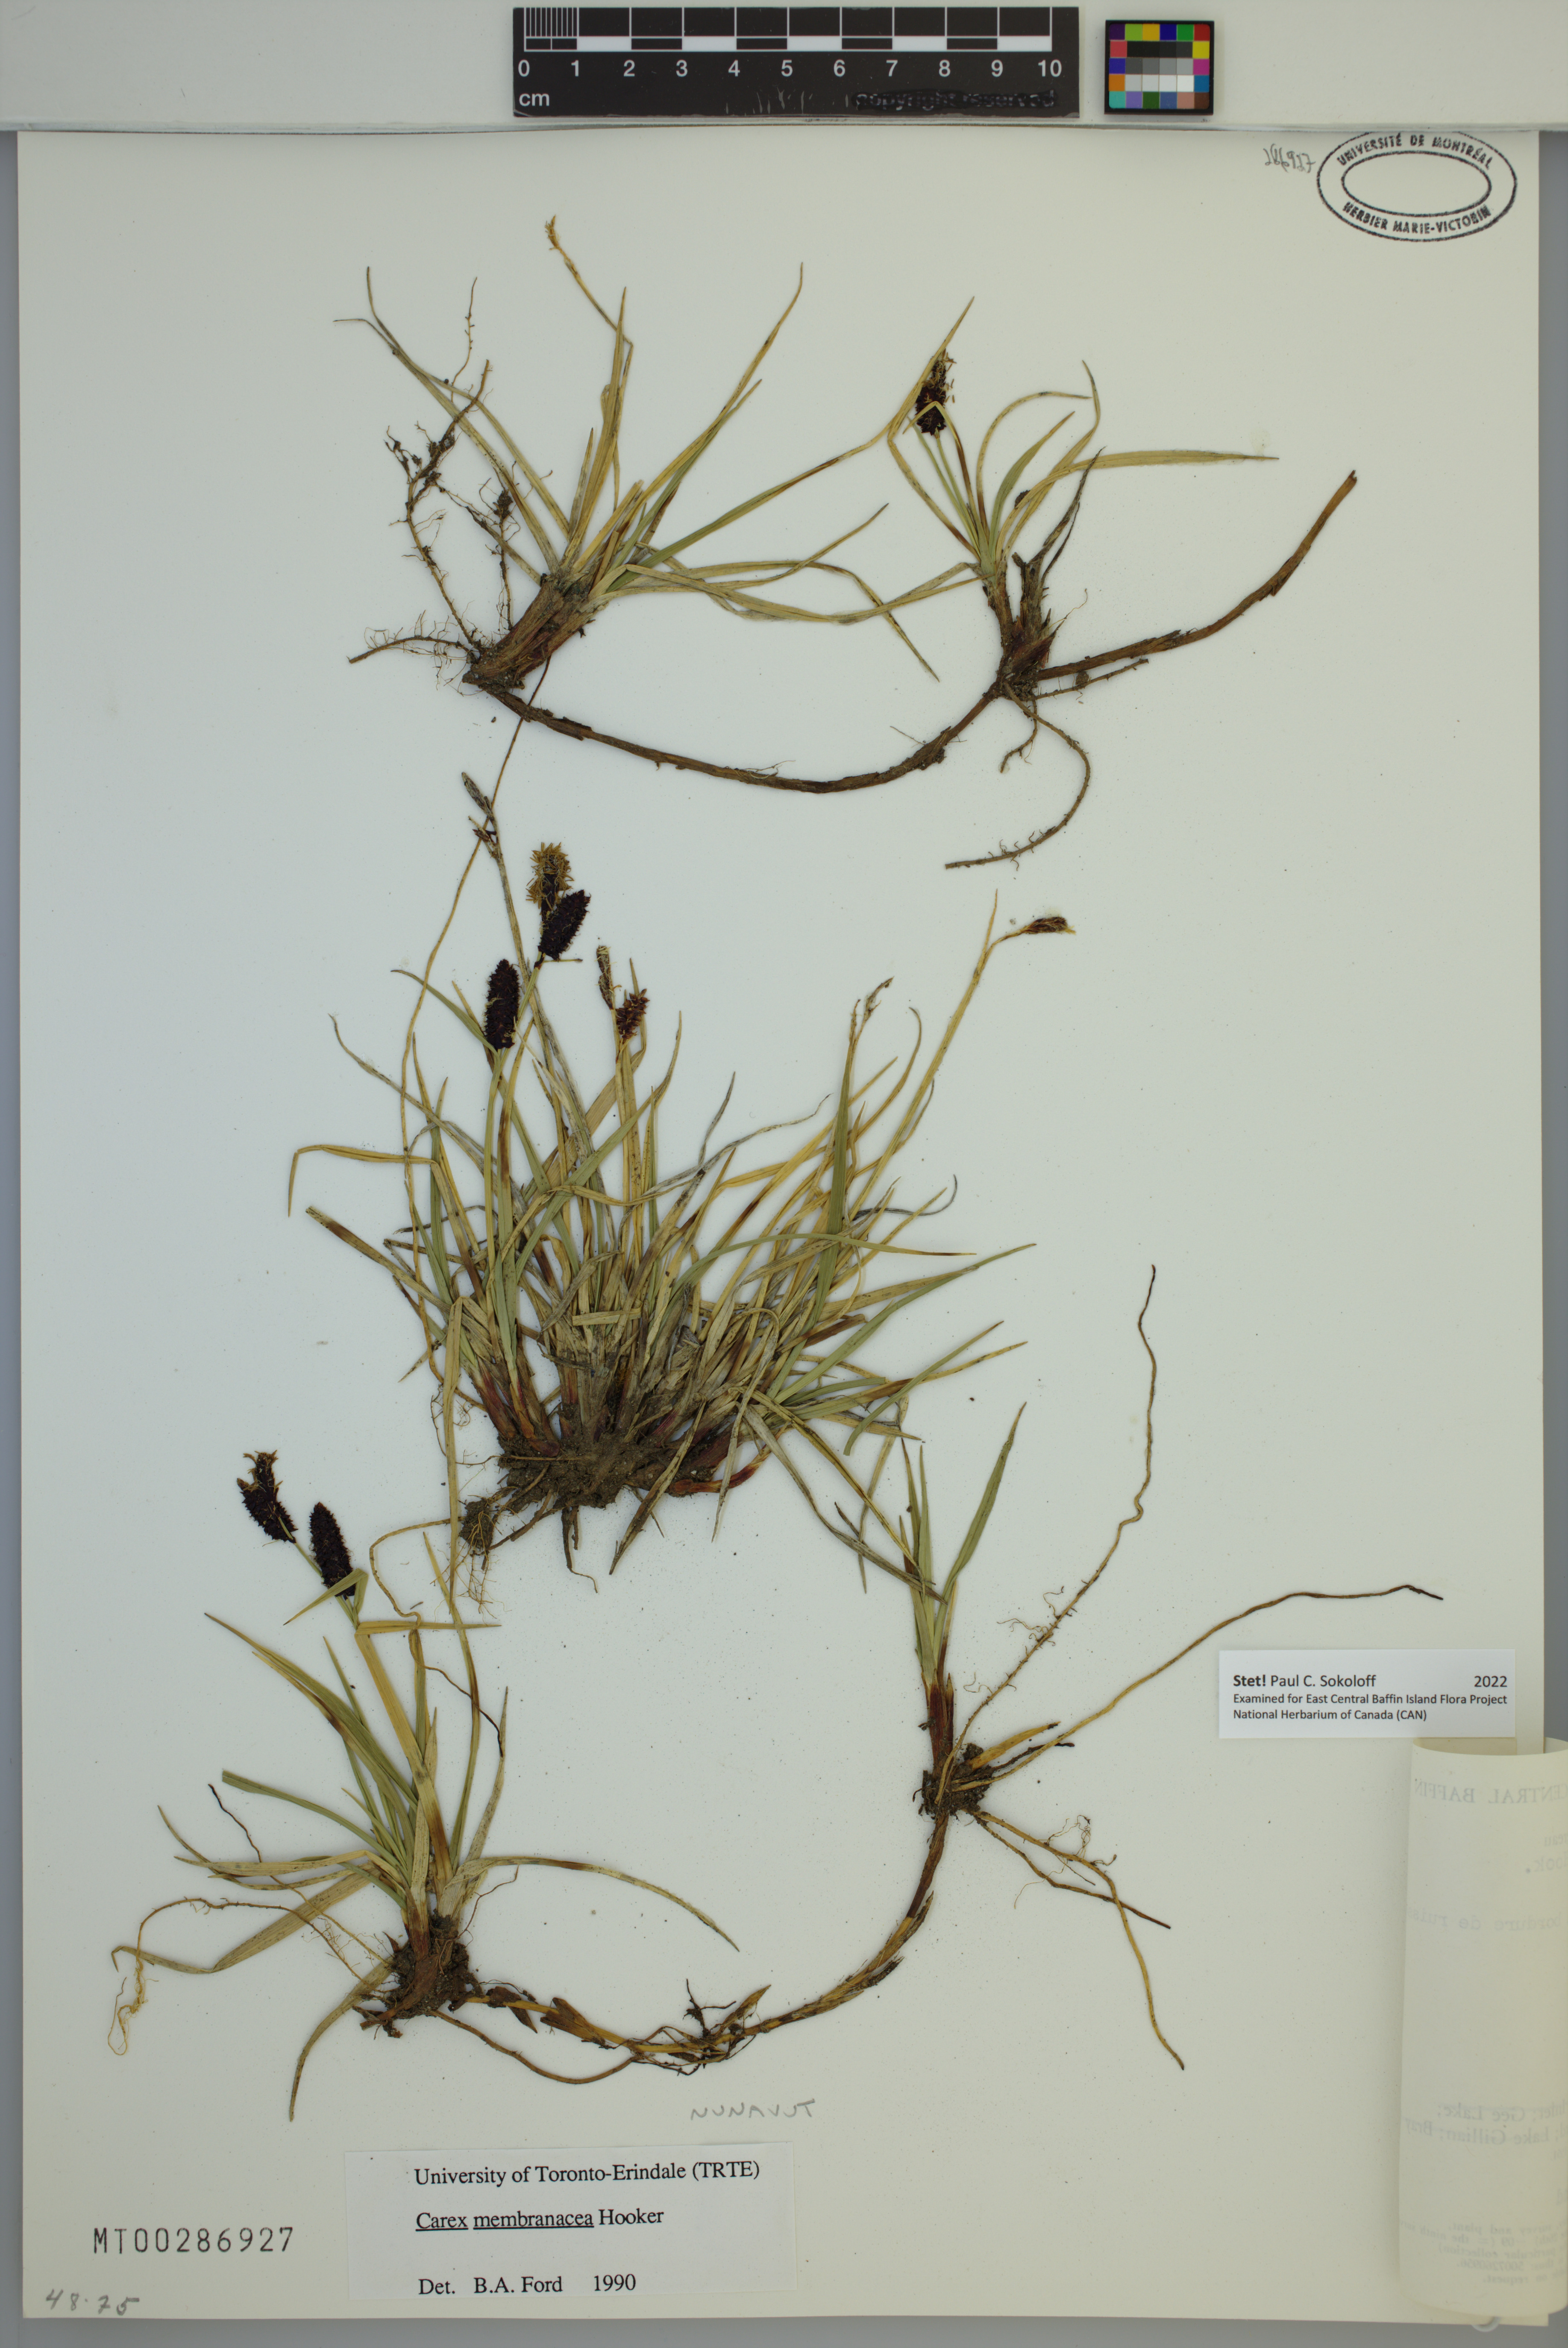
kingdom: Plantae
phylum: Tracheophyta
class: Liliopsida
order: Poales
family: Cyperaceae
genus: Carex
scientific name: Carex membranacea
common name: Fragile sedge
